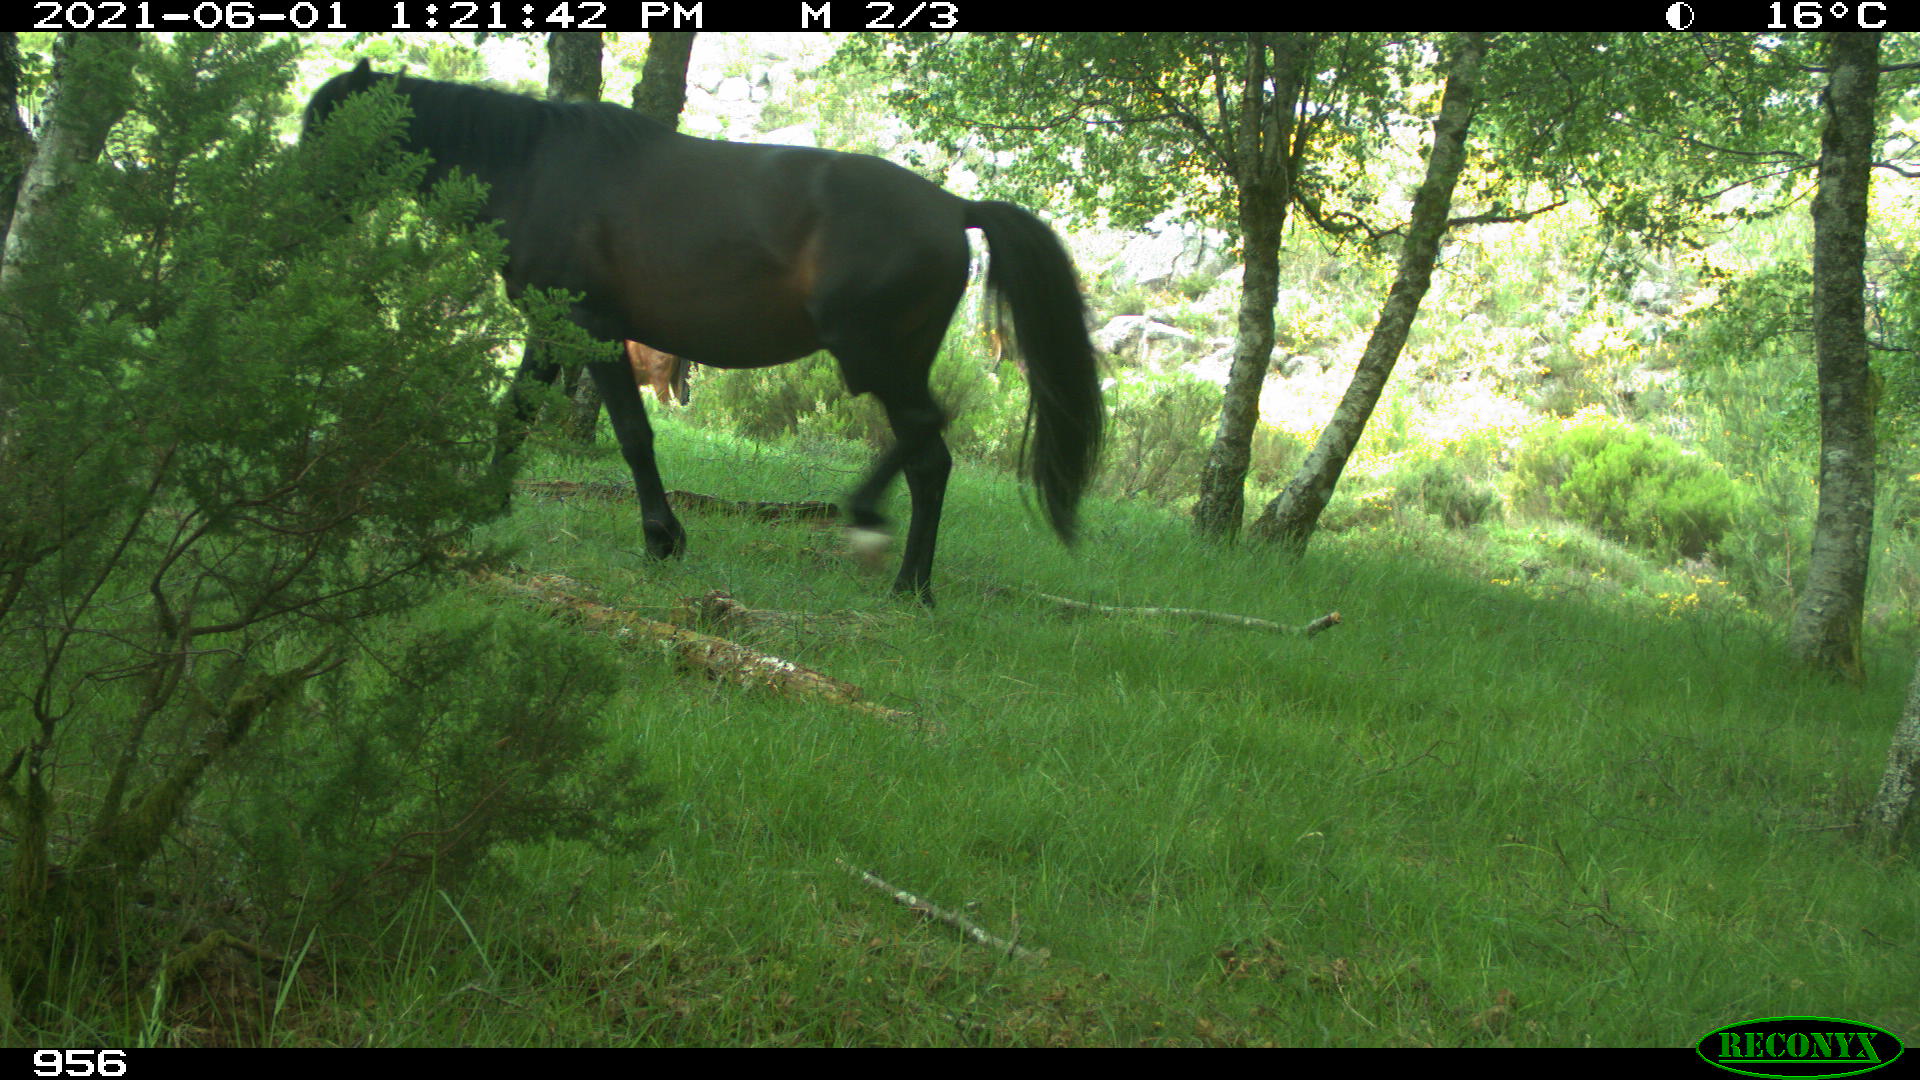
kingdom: Animalia
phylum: Chordata
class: Mammalia
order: Perissodactyla
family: Equidae
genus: Equus
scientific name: Equus caballus
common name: Horse
